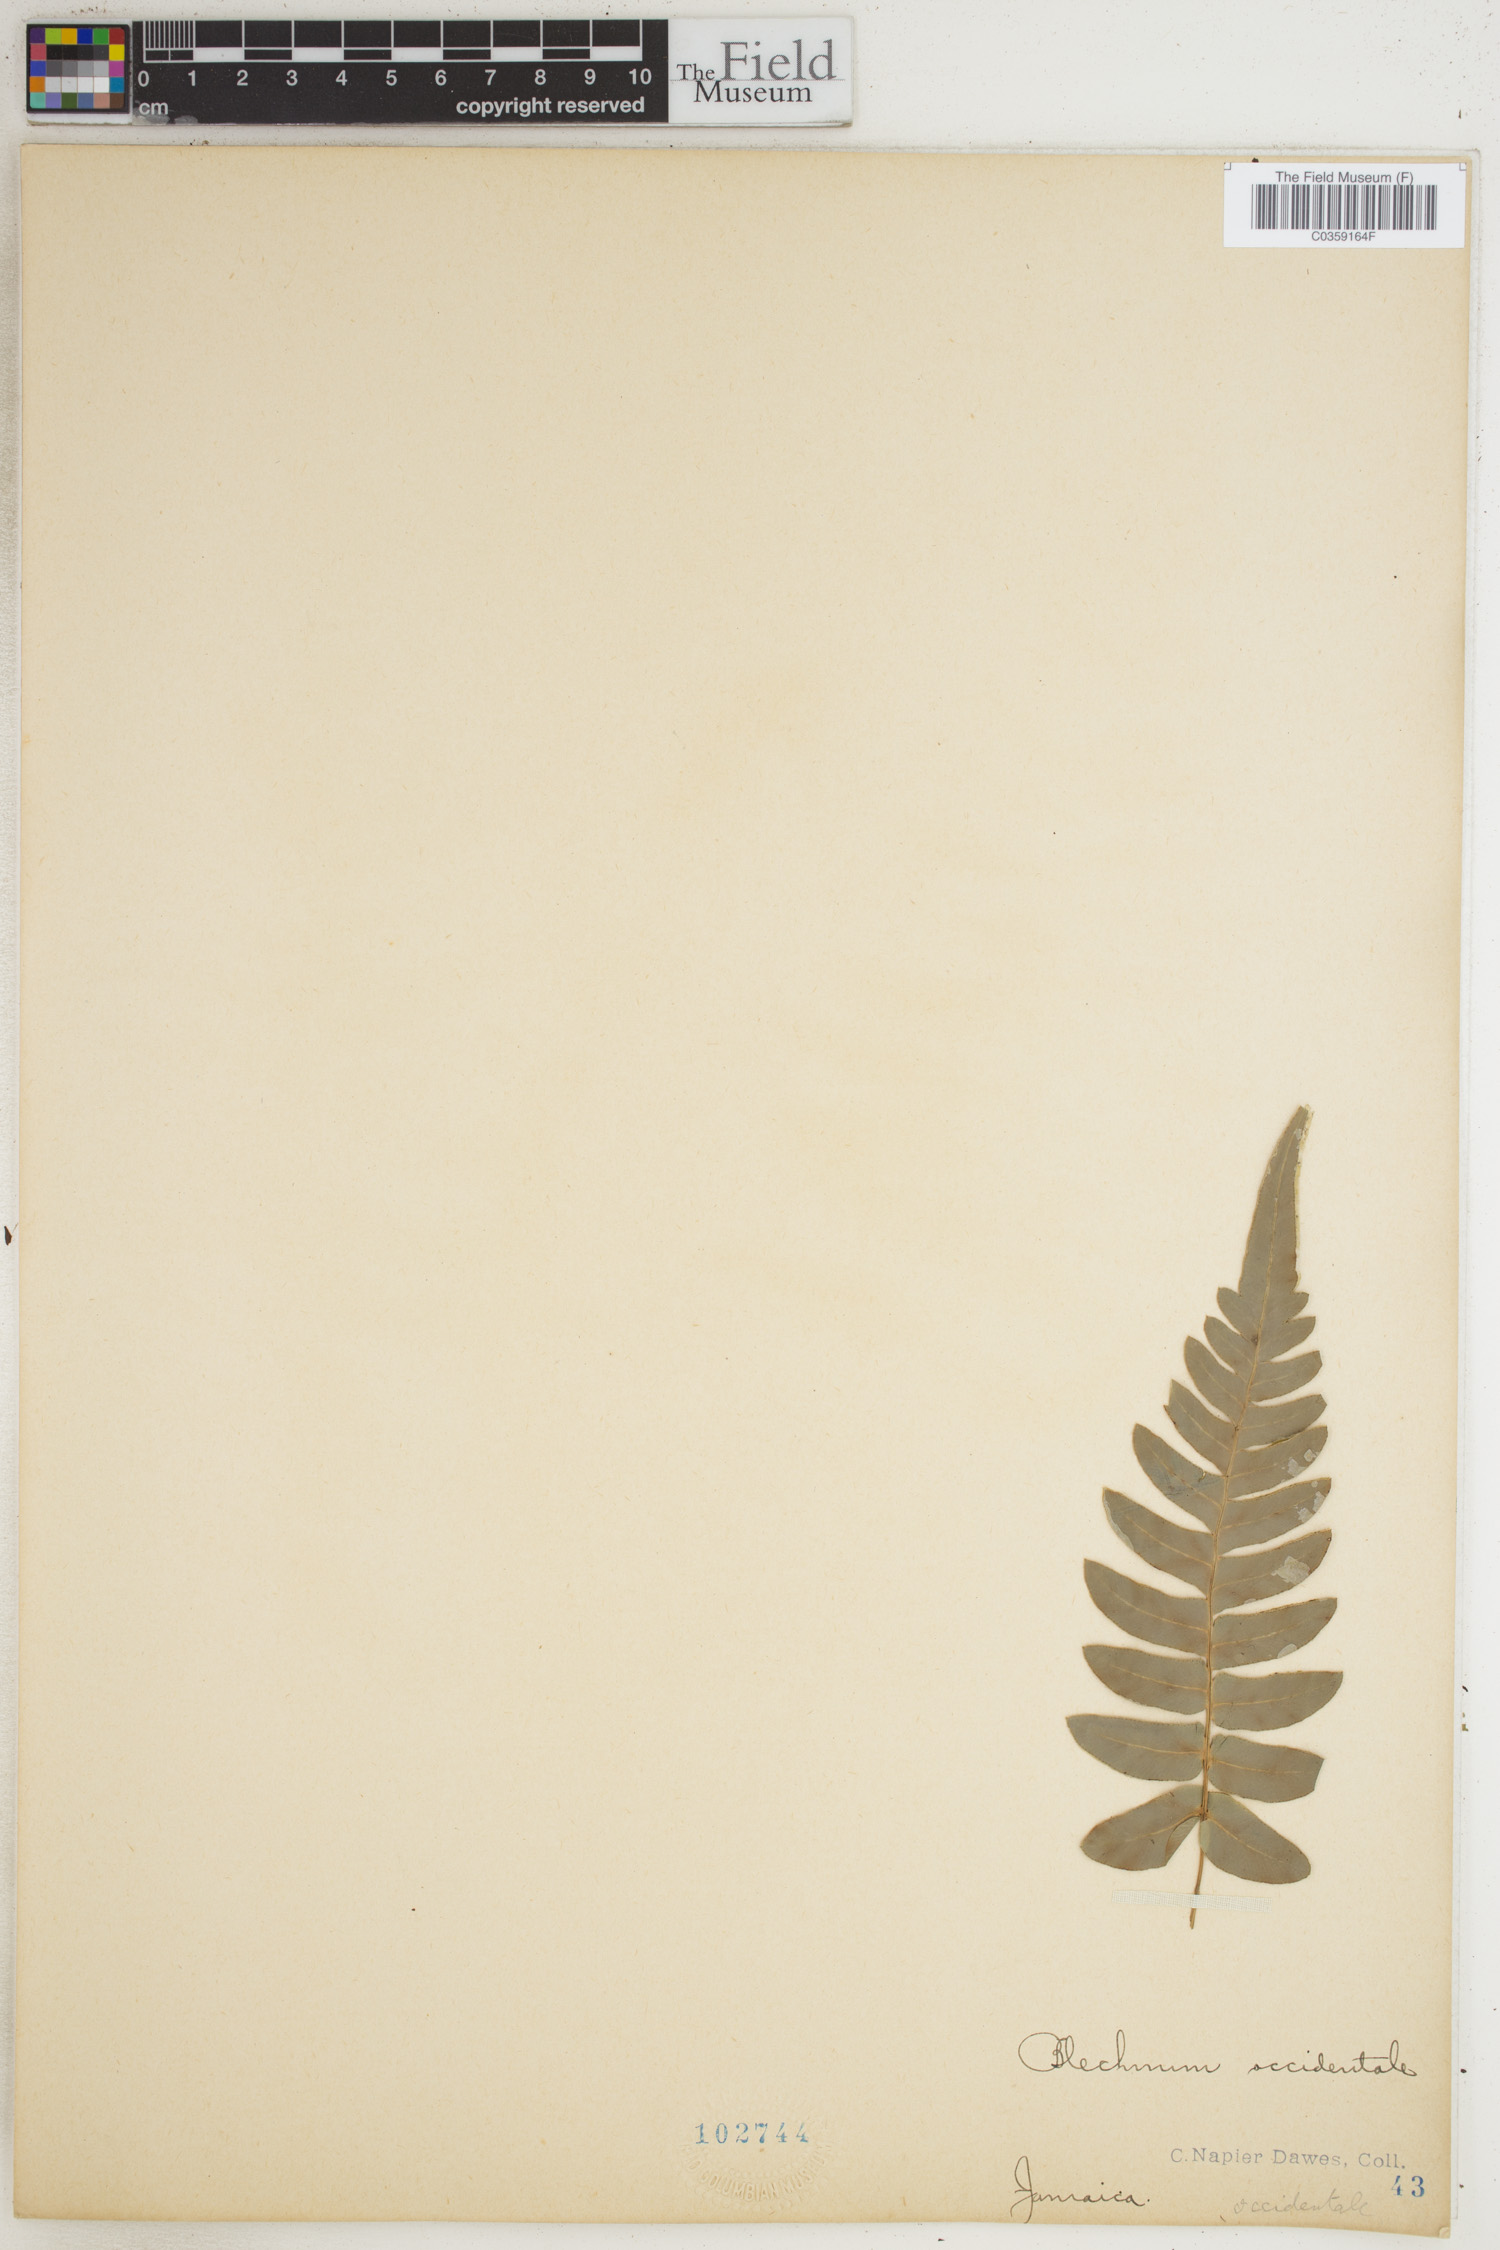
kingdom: Plantae
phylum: Tracheophyta
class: Polypodiopsida
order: Polypodiales
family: Blechnaceae
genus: Blechnum
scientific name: Blechnum occidentale
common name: Hammock fern
